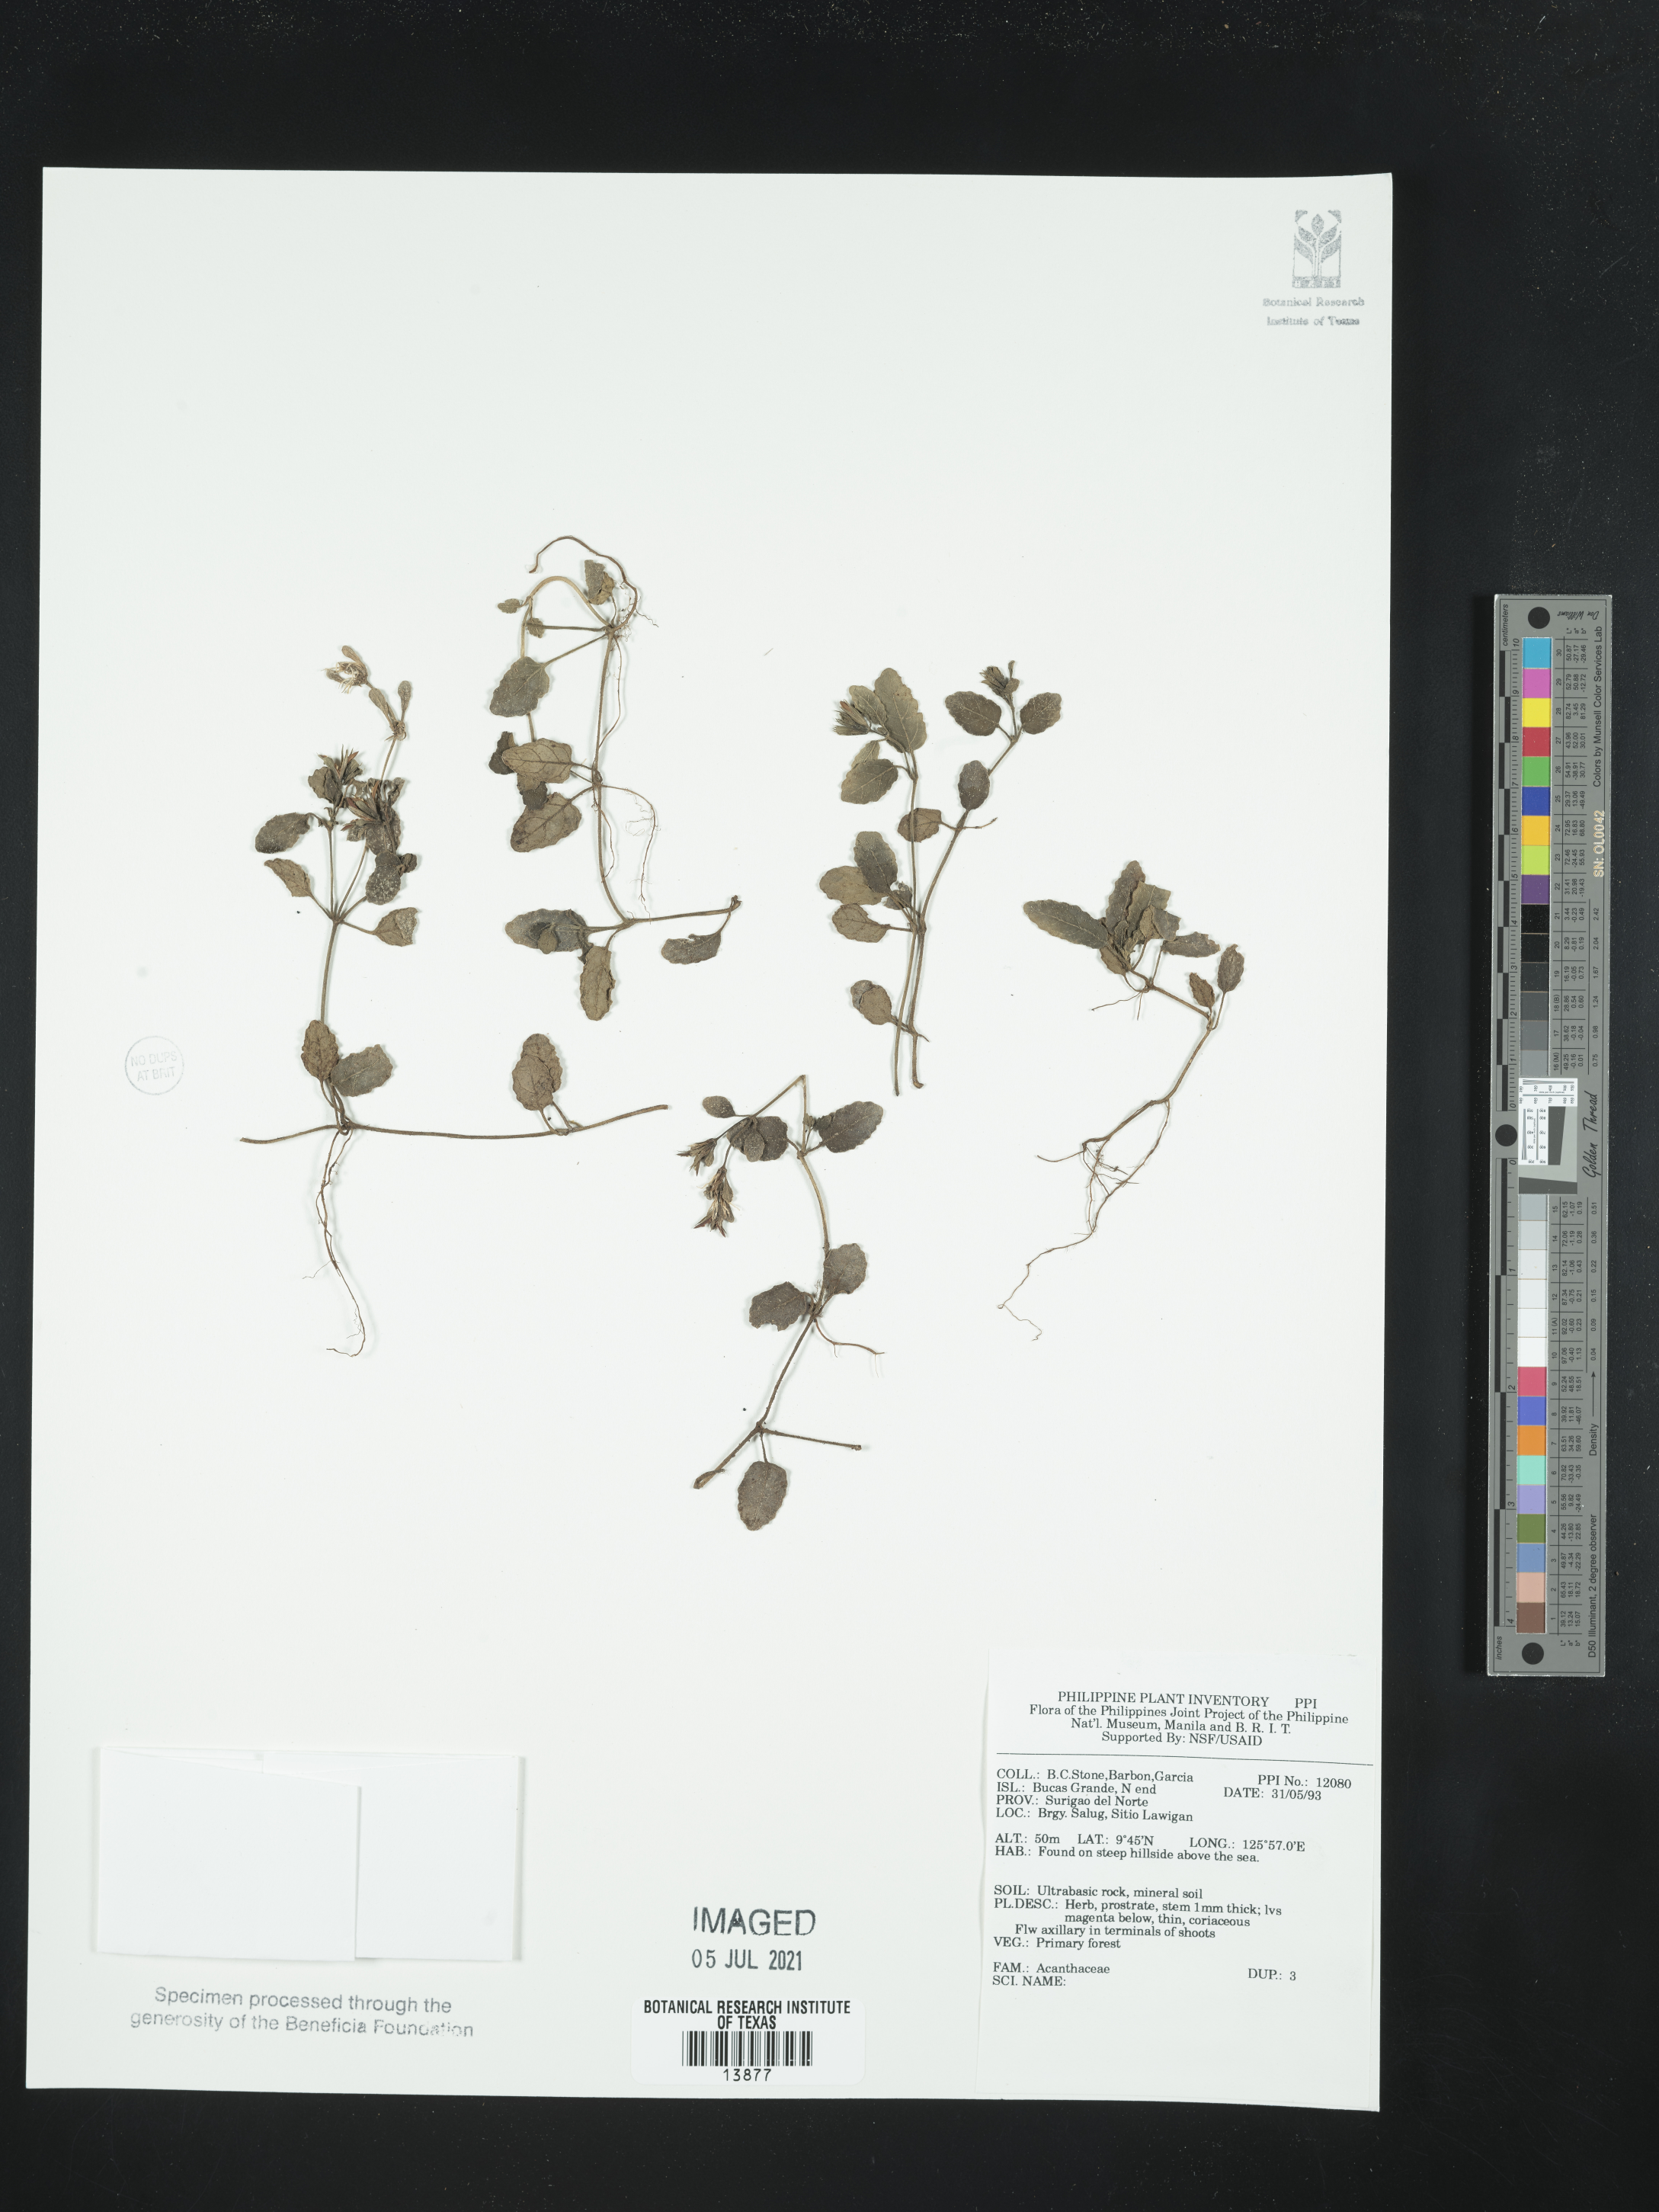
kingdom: Plantae
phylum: Tracheophyta
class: Magnoliopsida
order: Lamiales
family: Acanthaceae
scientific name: Acanthaceae
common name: Acanthaceae
